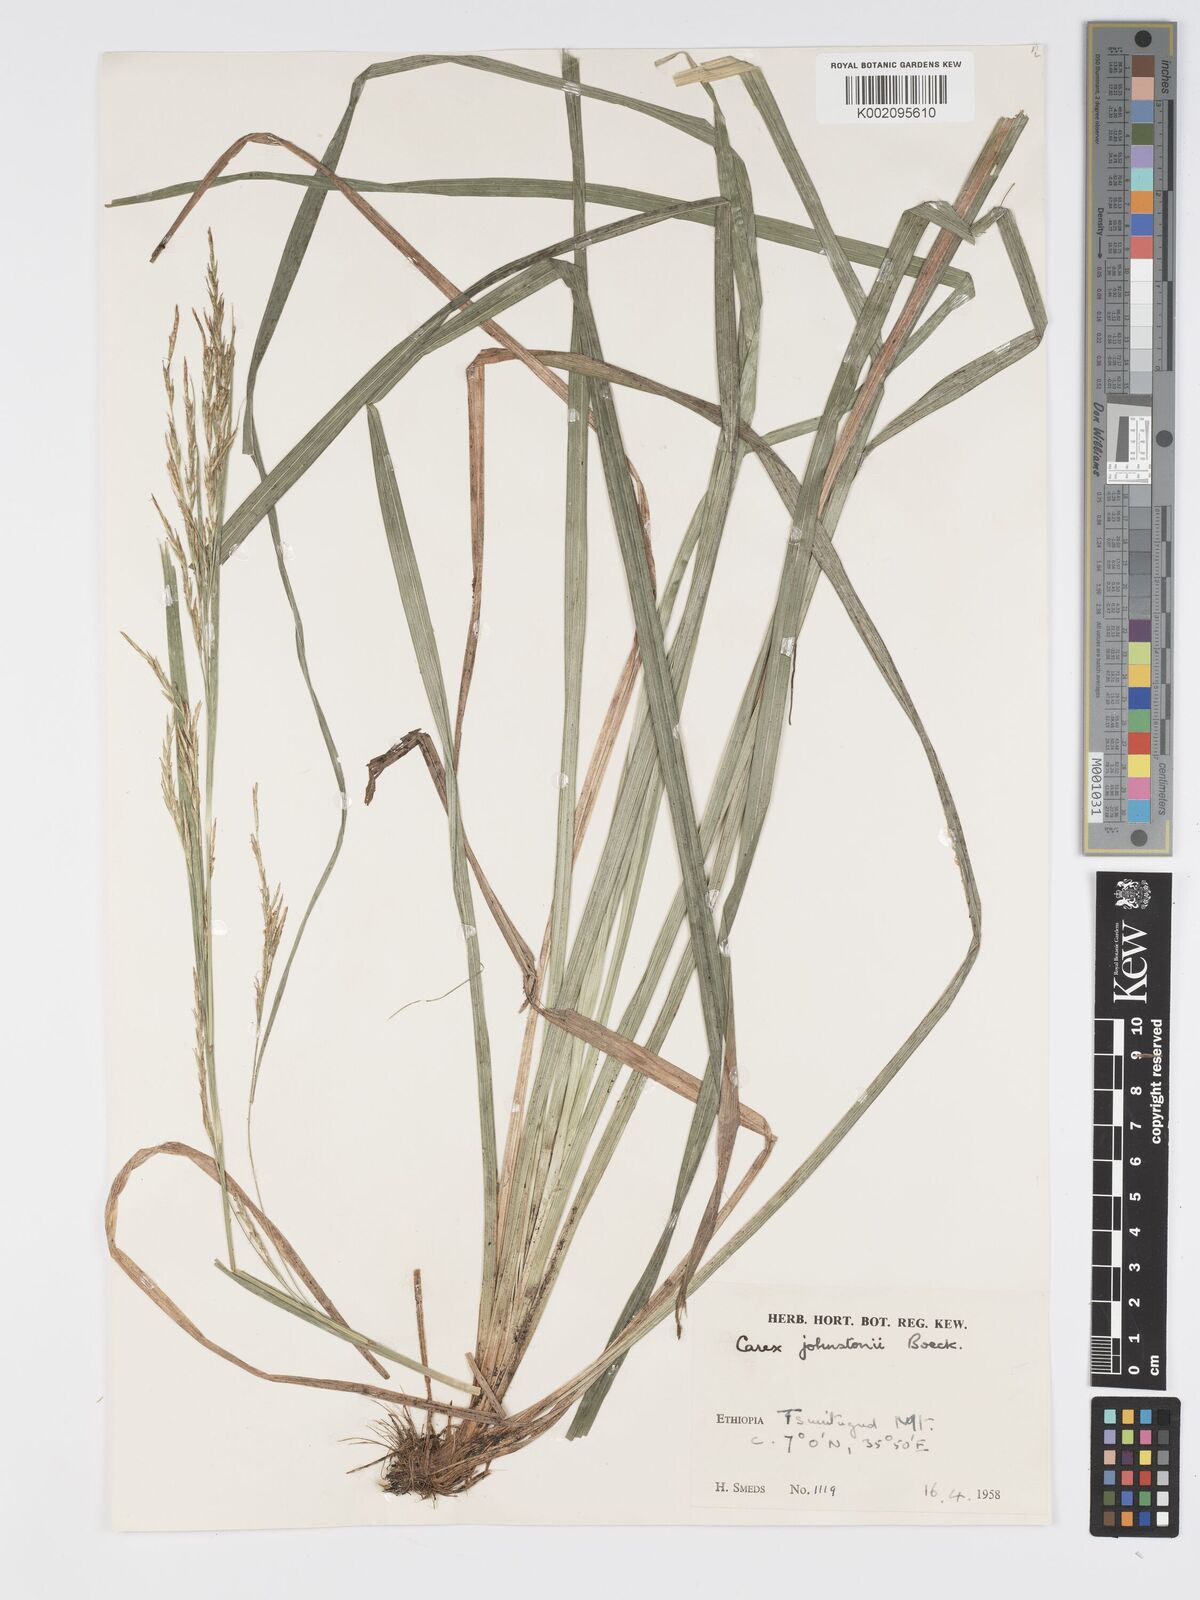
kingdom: Plantae
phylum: Tracheophyta
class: Liliopsida
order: Poales
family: Cyperaceae
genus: Carex
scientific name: Carex johnstonii
